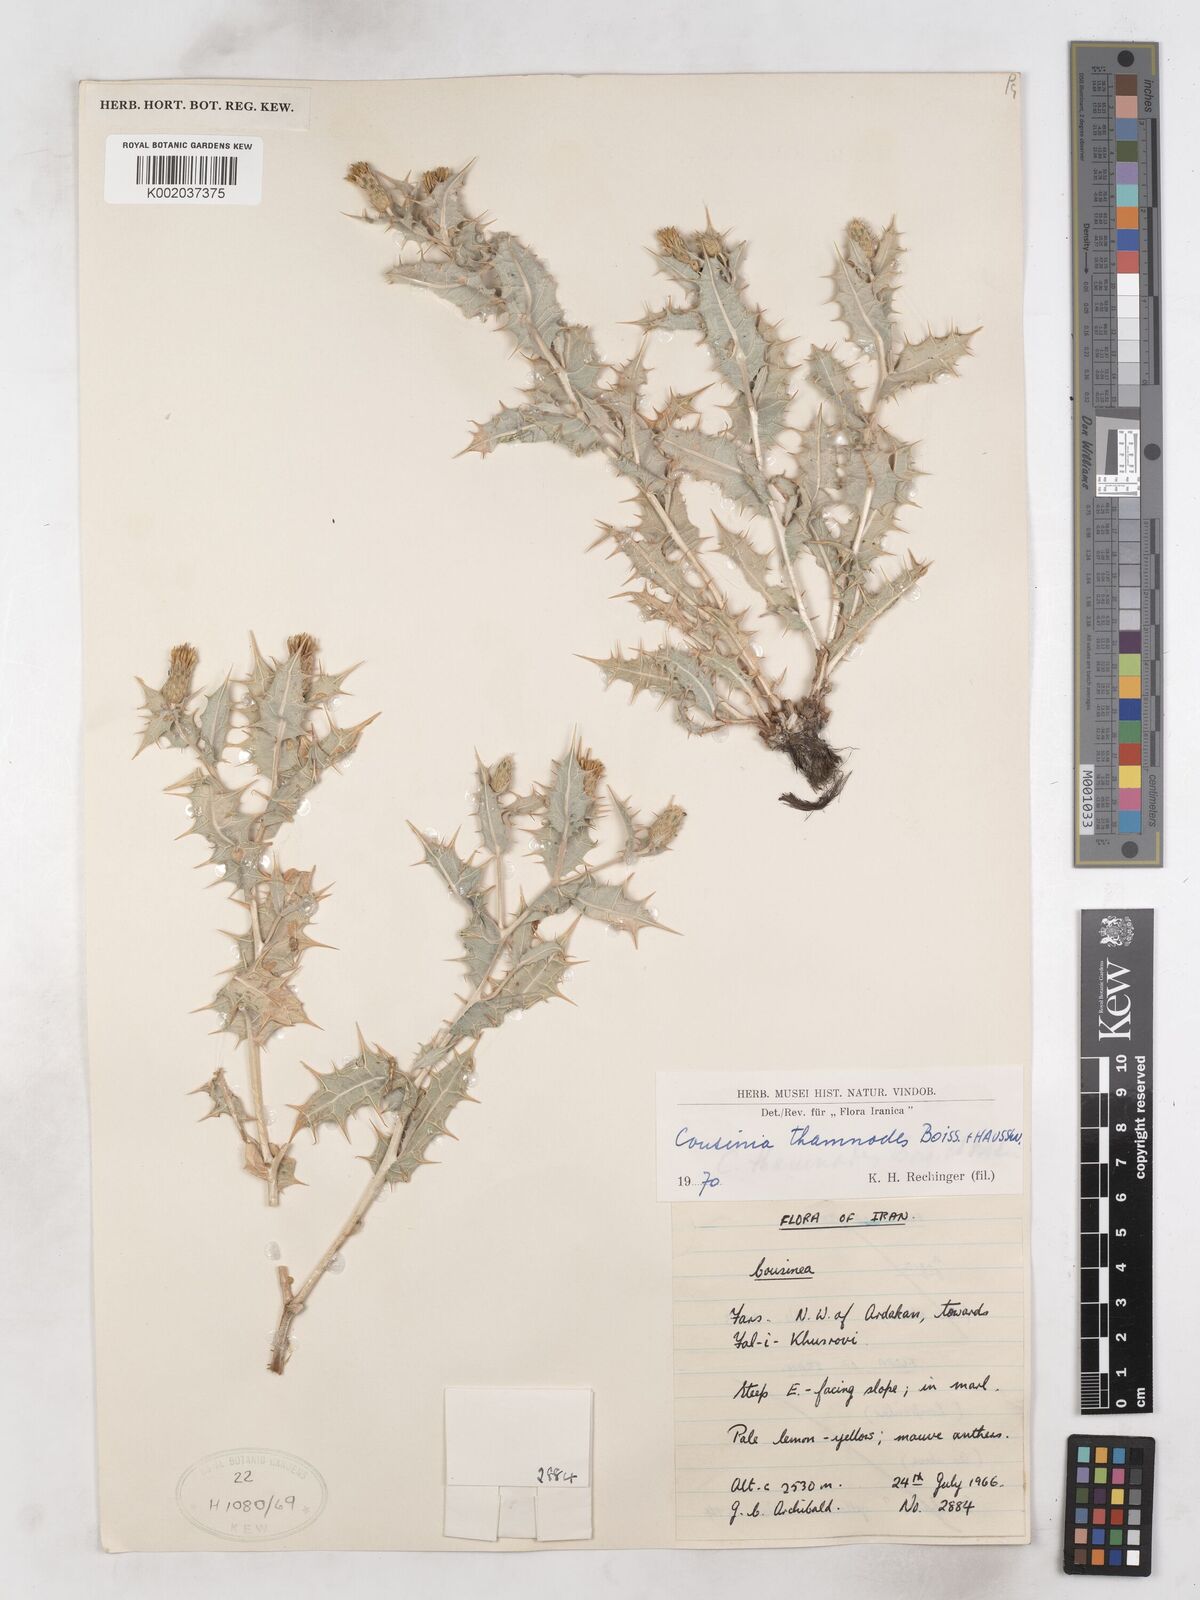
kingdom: Plantae
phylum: Tracheophyta
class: Magnoliopsida
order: Asterales
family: Asteraceae
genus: Cousinia
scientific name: Cousinia thamnodes
